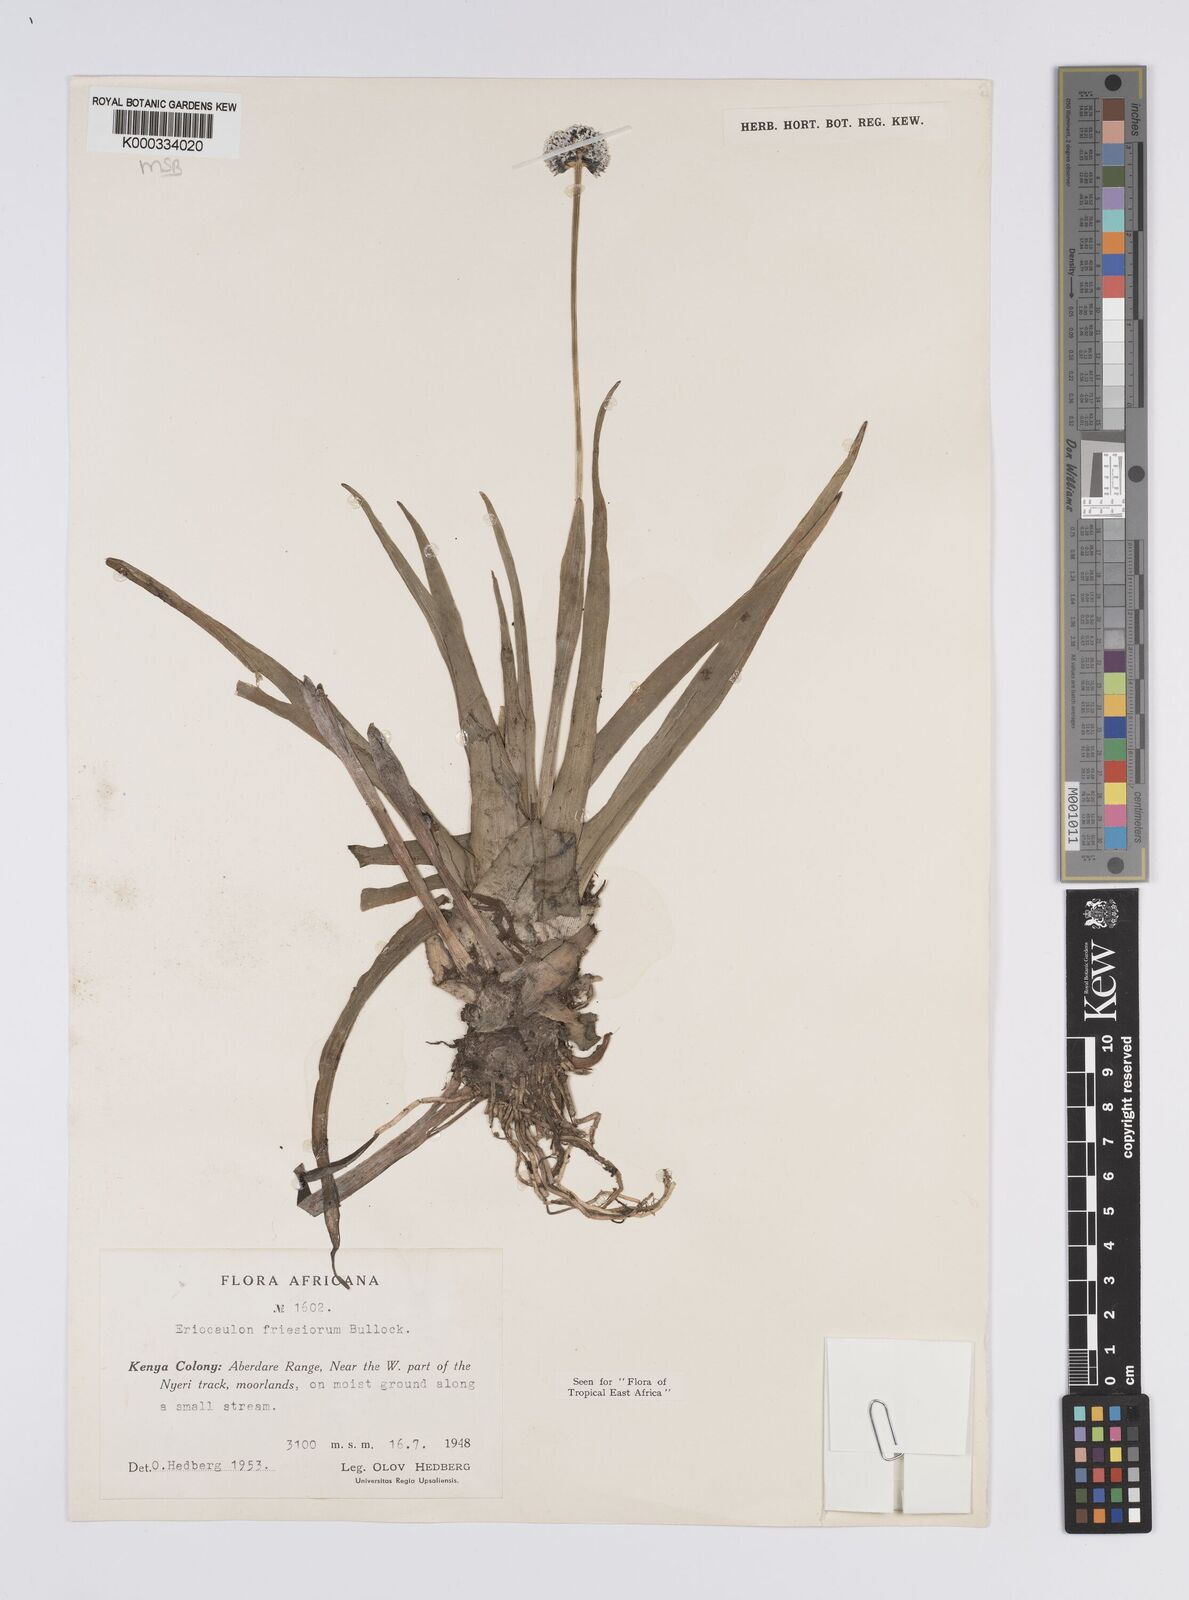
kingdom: Plantae
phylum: Tracheophyta
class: Liliopsida
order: Poales
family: Eriocaulaceae
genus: Eriocaulon
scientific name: Eriocaulon
